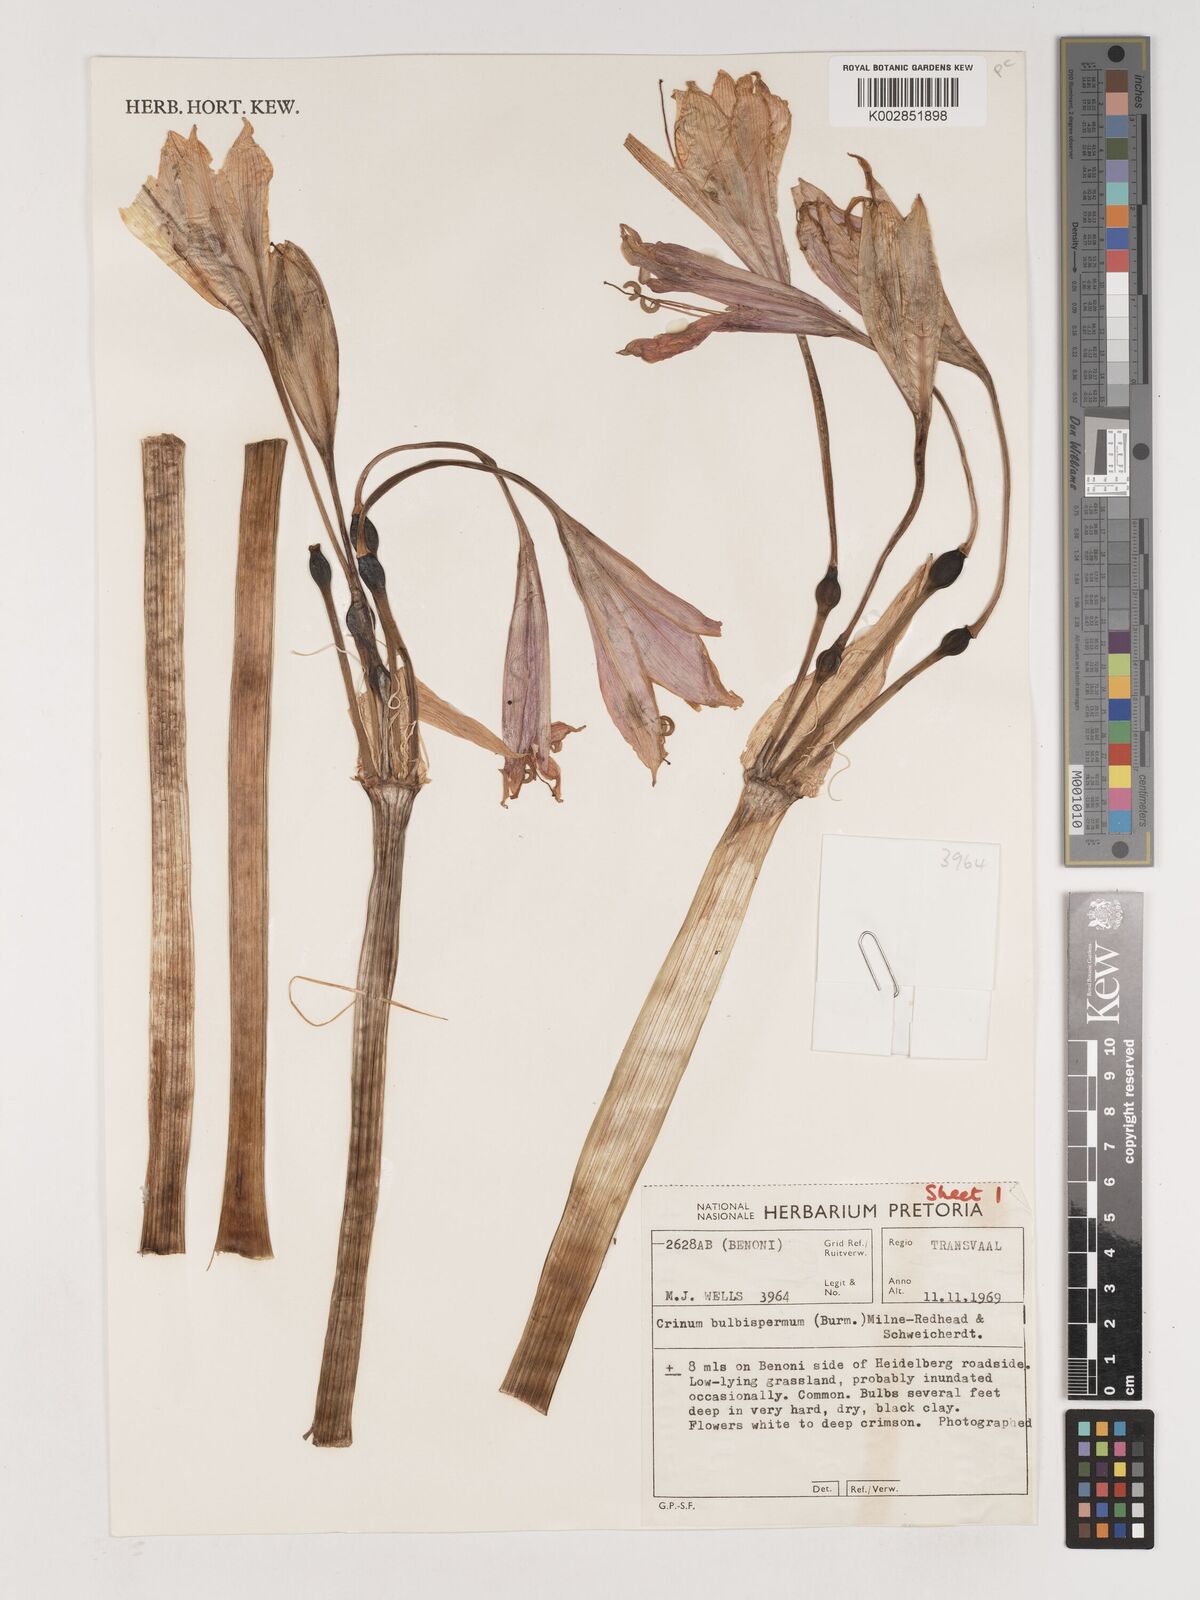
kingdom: Plantae
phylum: Tracheophyta
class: Liliopsida
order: Asparagales
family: Amaryllidaceae
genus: Crinum
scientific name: Crinum bulbispermum
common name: Hardy swamplily
